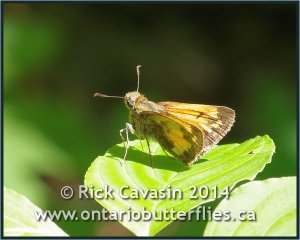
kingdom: Animalia
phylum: Arthropoda
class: Insecta
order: Lepidoptera
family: Hesperiidae
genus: Lon
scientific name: Lon hobomok
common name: Hobomok Skipper
